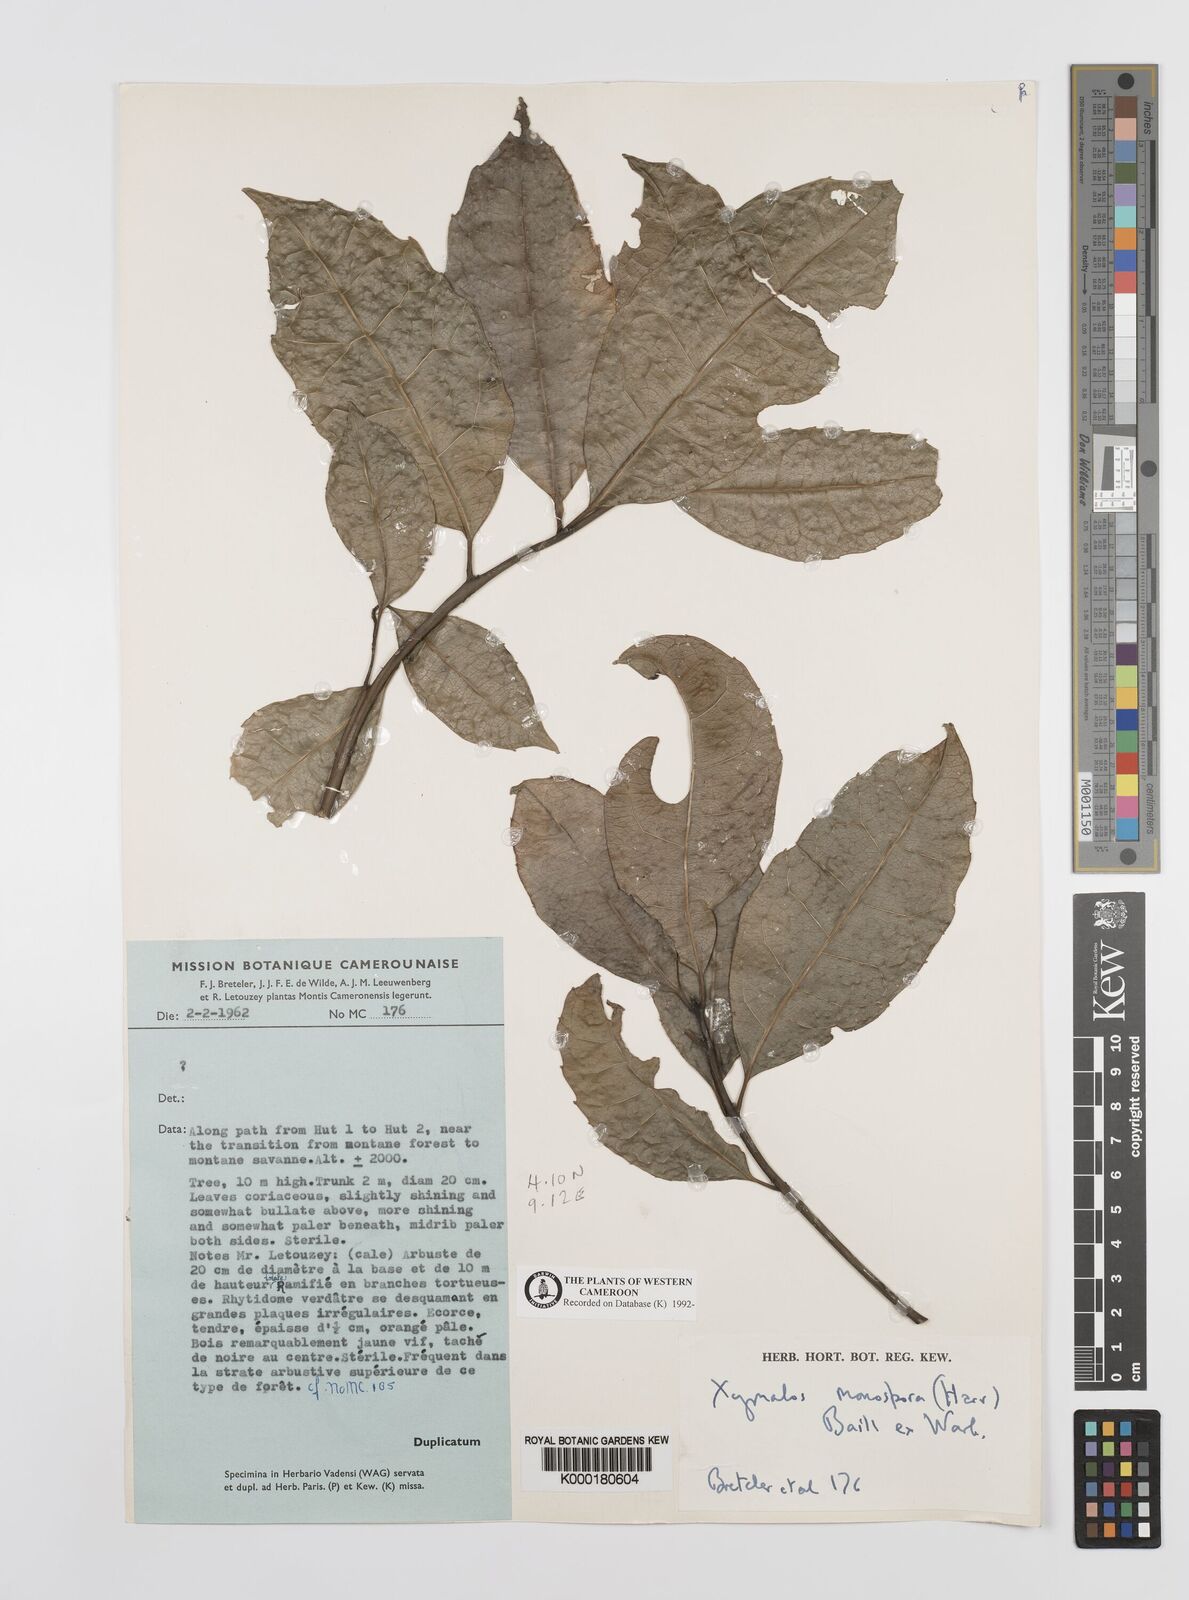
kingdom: Plantae
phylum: Tracheophyta
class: Magnoliopsida
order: Laurales
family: Monimiaceae
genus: Xymalos
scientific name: Xymalos
